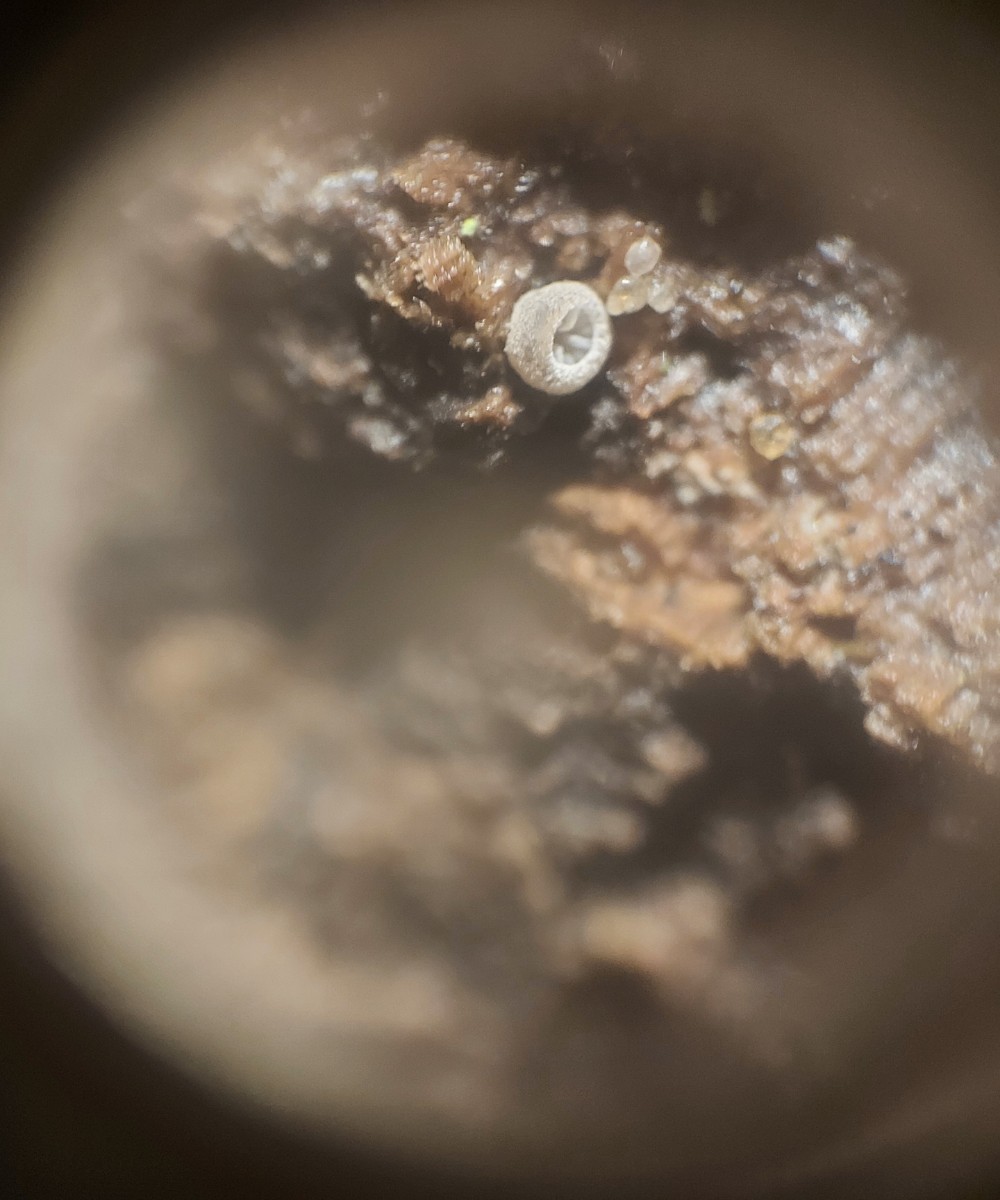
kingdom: Fungi
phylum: Basidiomycota
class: Agaricomycetes
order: Agaricales
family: Pleurotaceae
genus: Resupinatus
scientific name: Resupinatus applicatus
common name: lysfiltet barkhat
